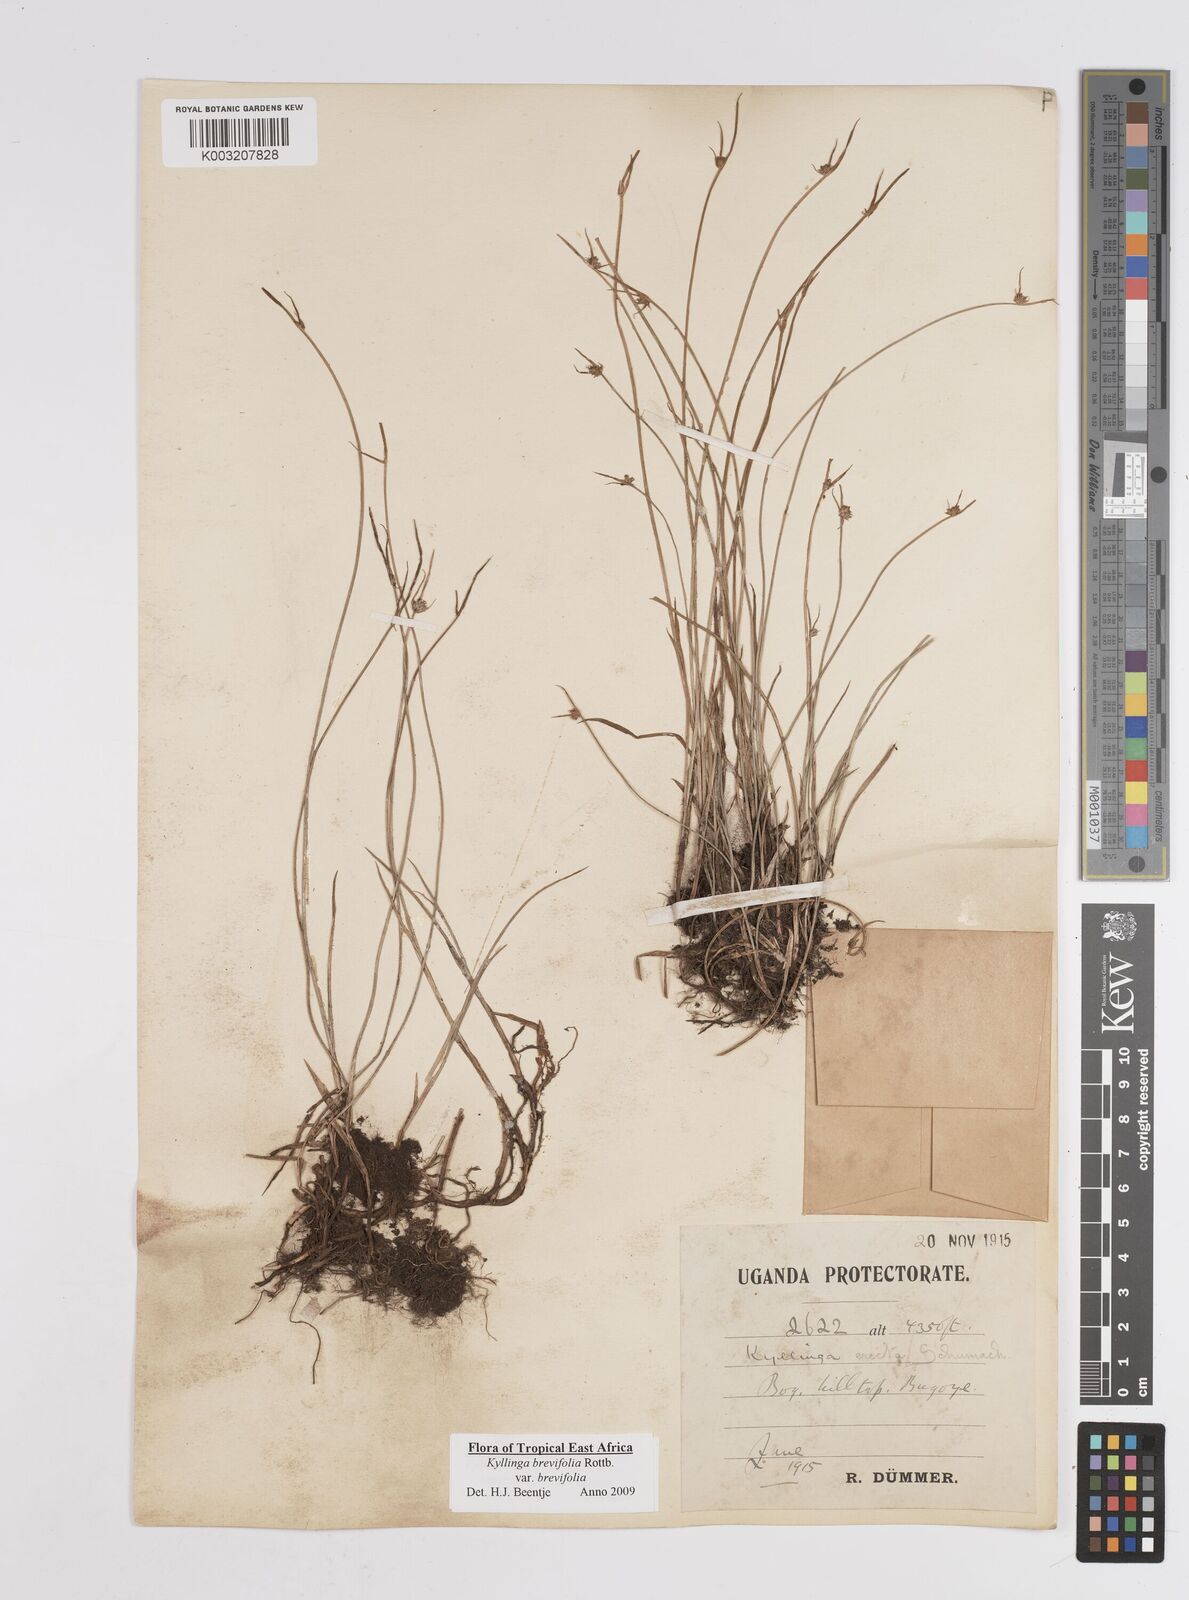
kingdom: Plantae
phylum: Tracheophyta
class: Liliopsida
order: Poales
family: Cyperaceae
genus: Cyperus
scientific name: Cyperus erectus
